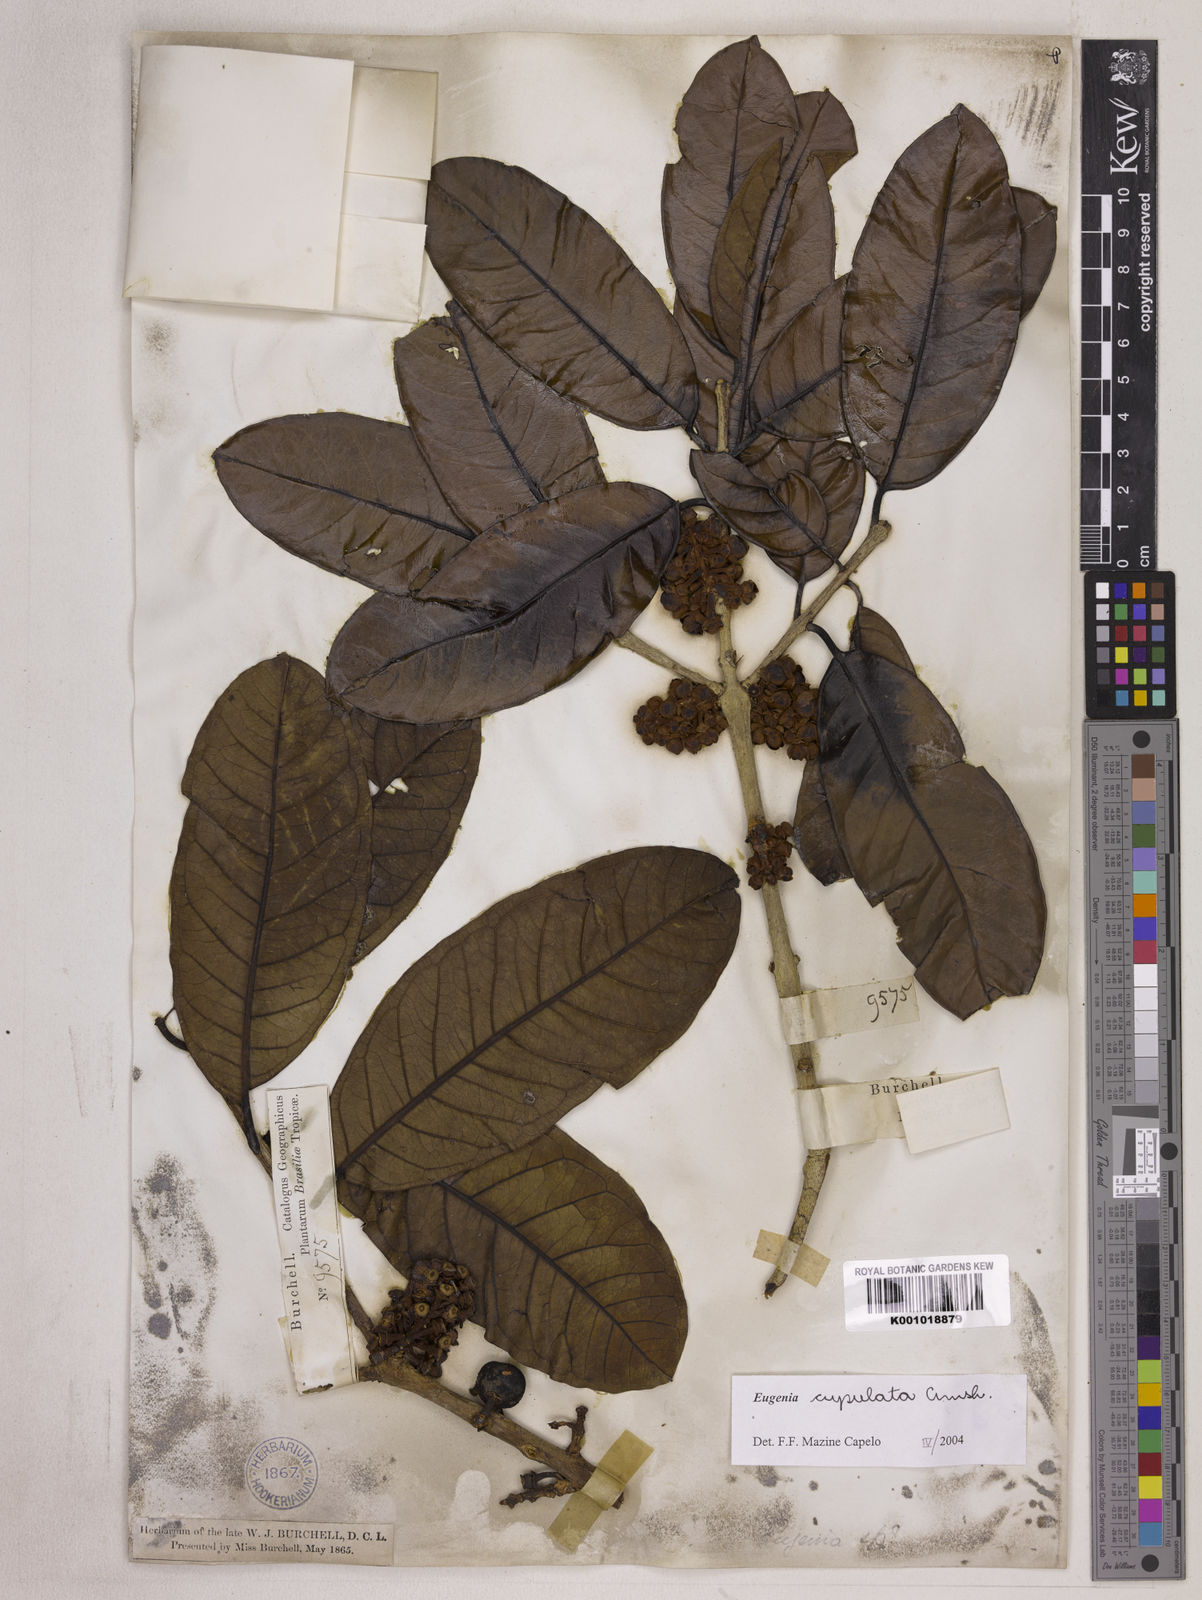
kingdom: Plantae
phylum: Tracheophyta
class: Magnoliopsida
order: Myrtales
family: Myrtaceae
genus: Eugenia
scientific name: Eugenia cupulata
